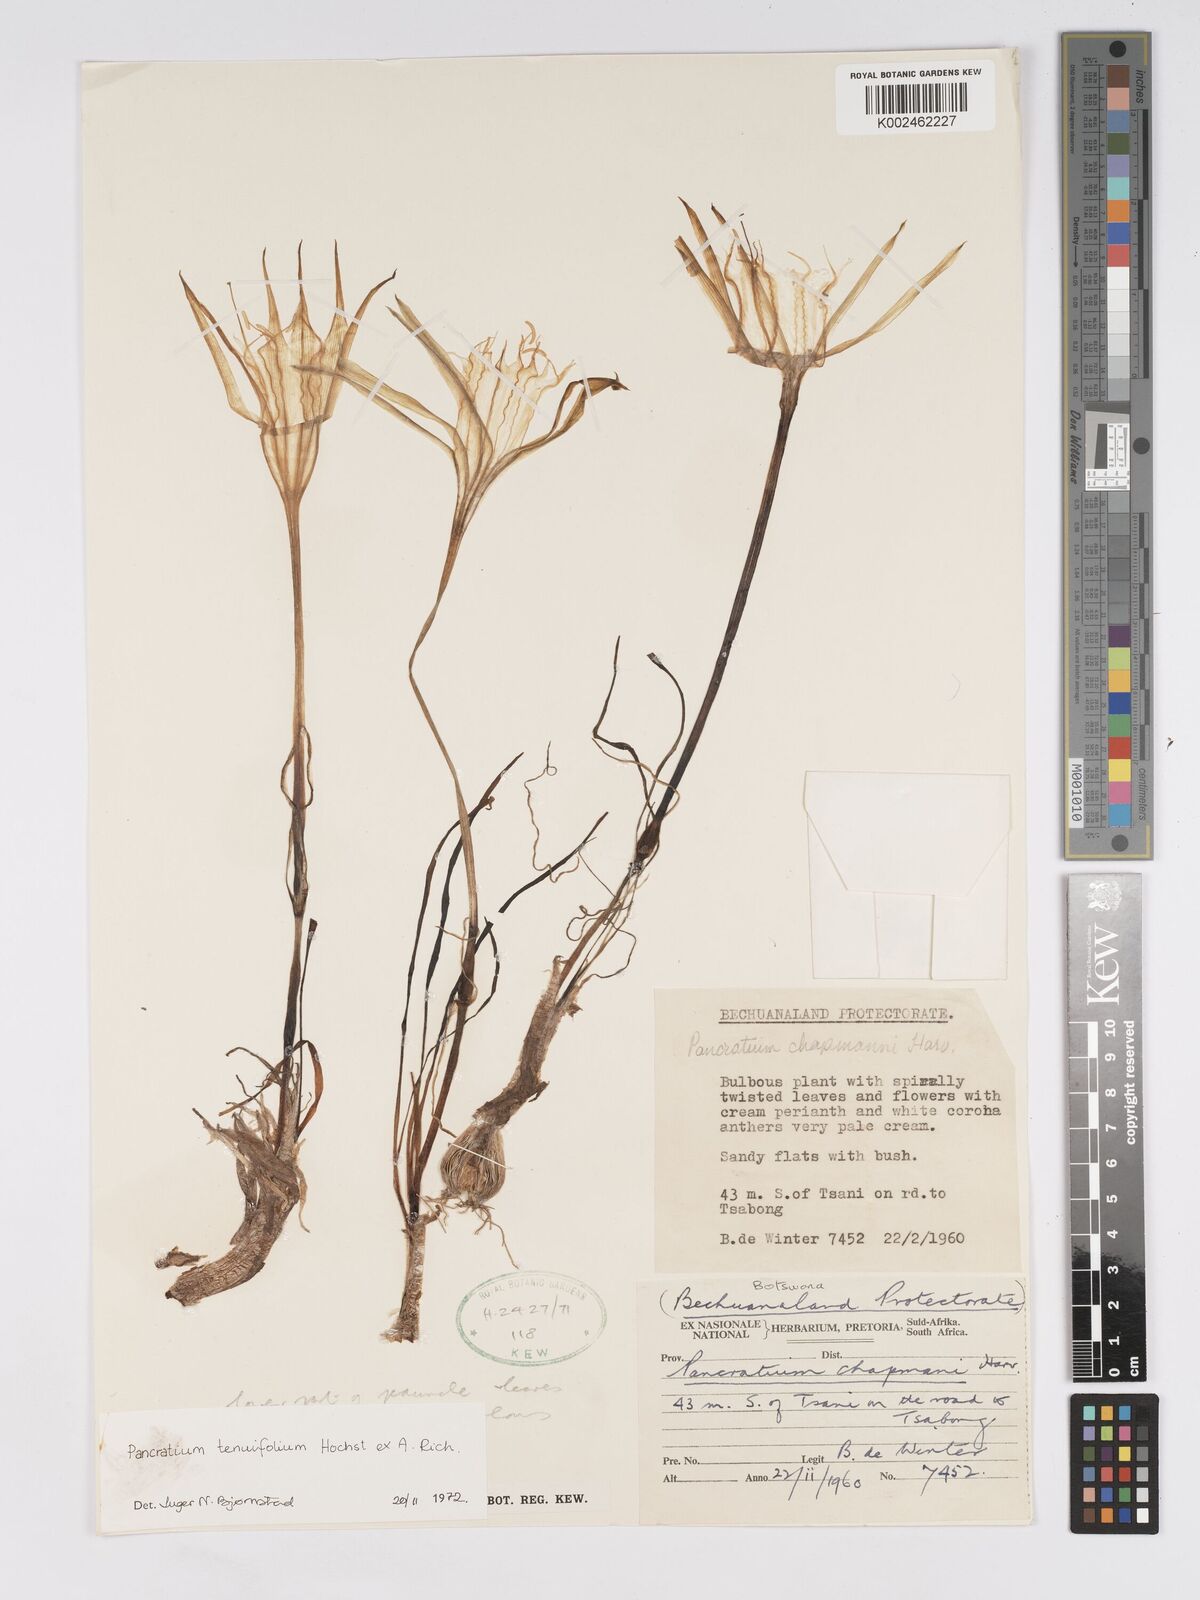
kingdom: Plantae
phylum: Tracheophyta
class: Liliopsida
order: Asparagales
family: Amaryllidaceae
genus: Pancratium
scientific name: Pancratium tenuifolium
